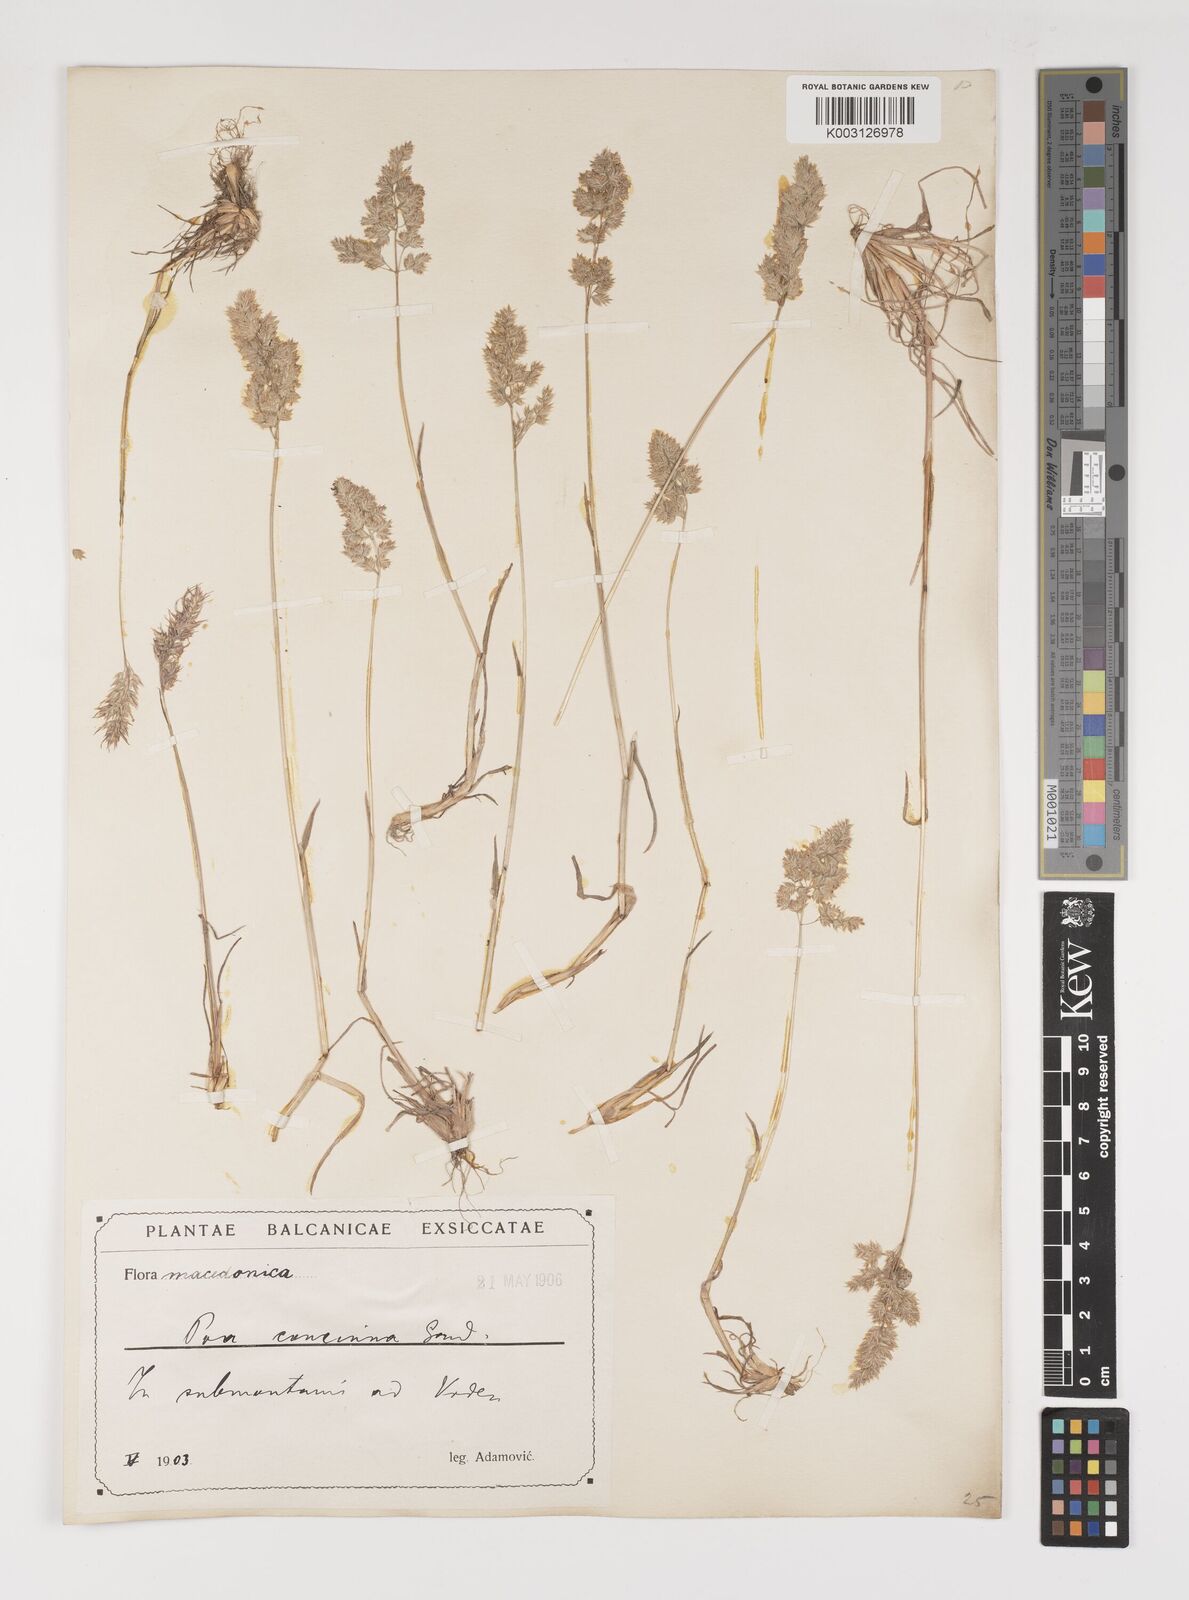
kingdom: Plantae
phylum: Tracheophyta
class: Liliopsida
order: Poales
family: Poaceae
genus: Poa
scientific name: Poa perconcinna
